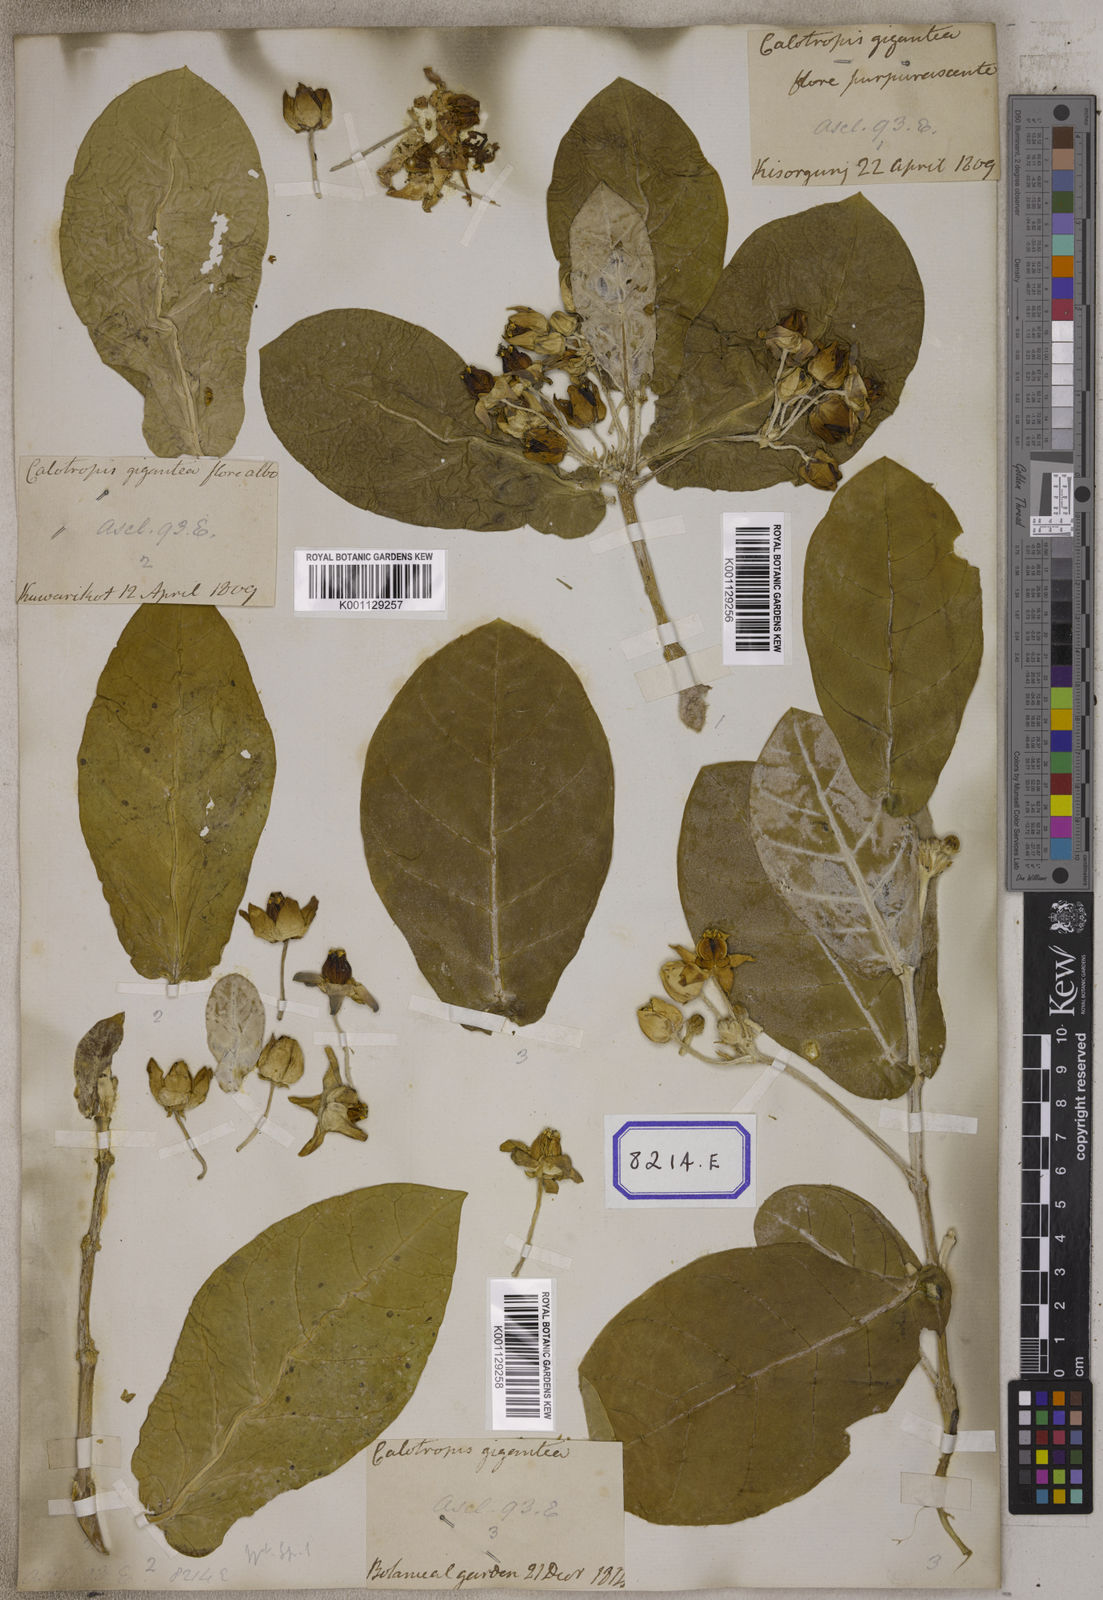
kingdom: Plantae
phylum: Tracheophyta
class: Magnoliopsida
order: Gentianales
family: Apocynaceae
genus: Calotropis
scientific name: Calotropis gigantea
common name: Crown flower
